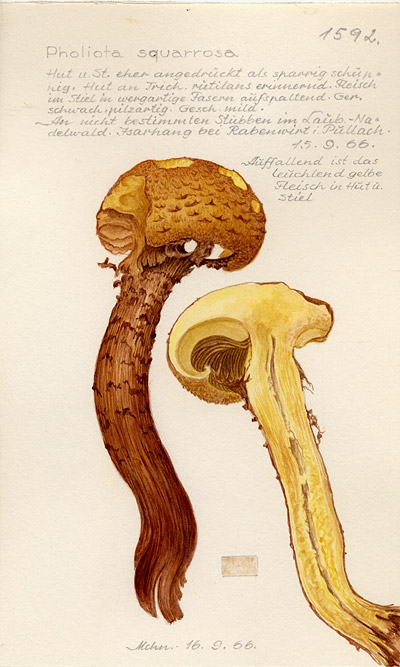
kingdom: Fungi
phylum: Basidiomycota
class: Agaricomycetes
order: Agaricales
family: Strophariaceae
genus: Pholiota
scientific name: Pholiota squarrosa
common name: Shaggy pholiota
